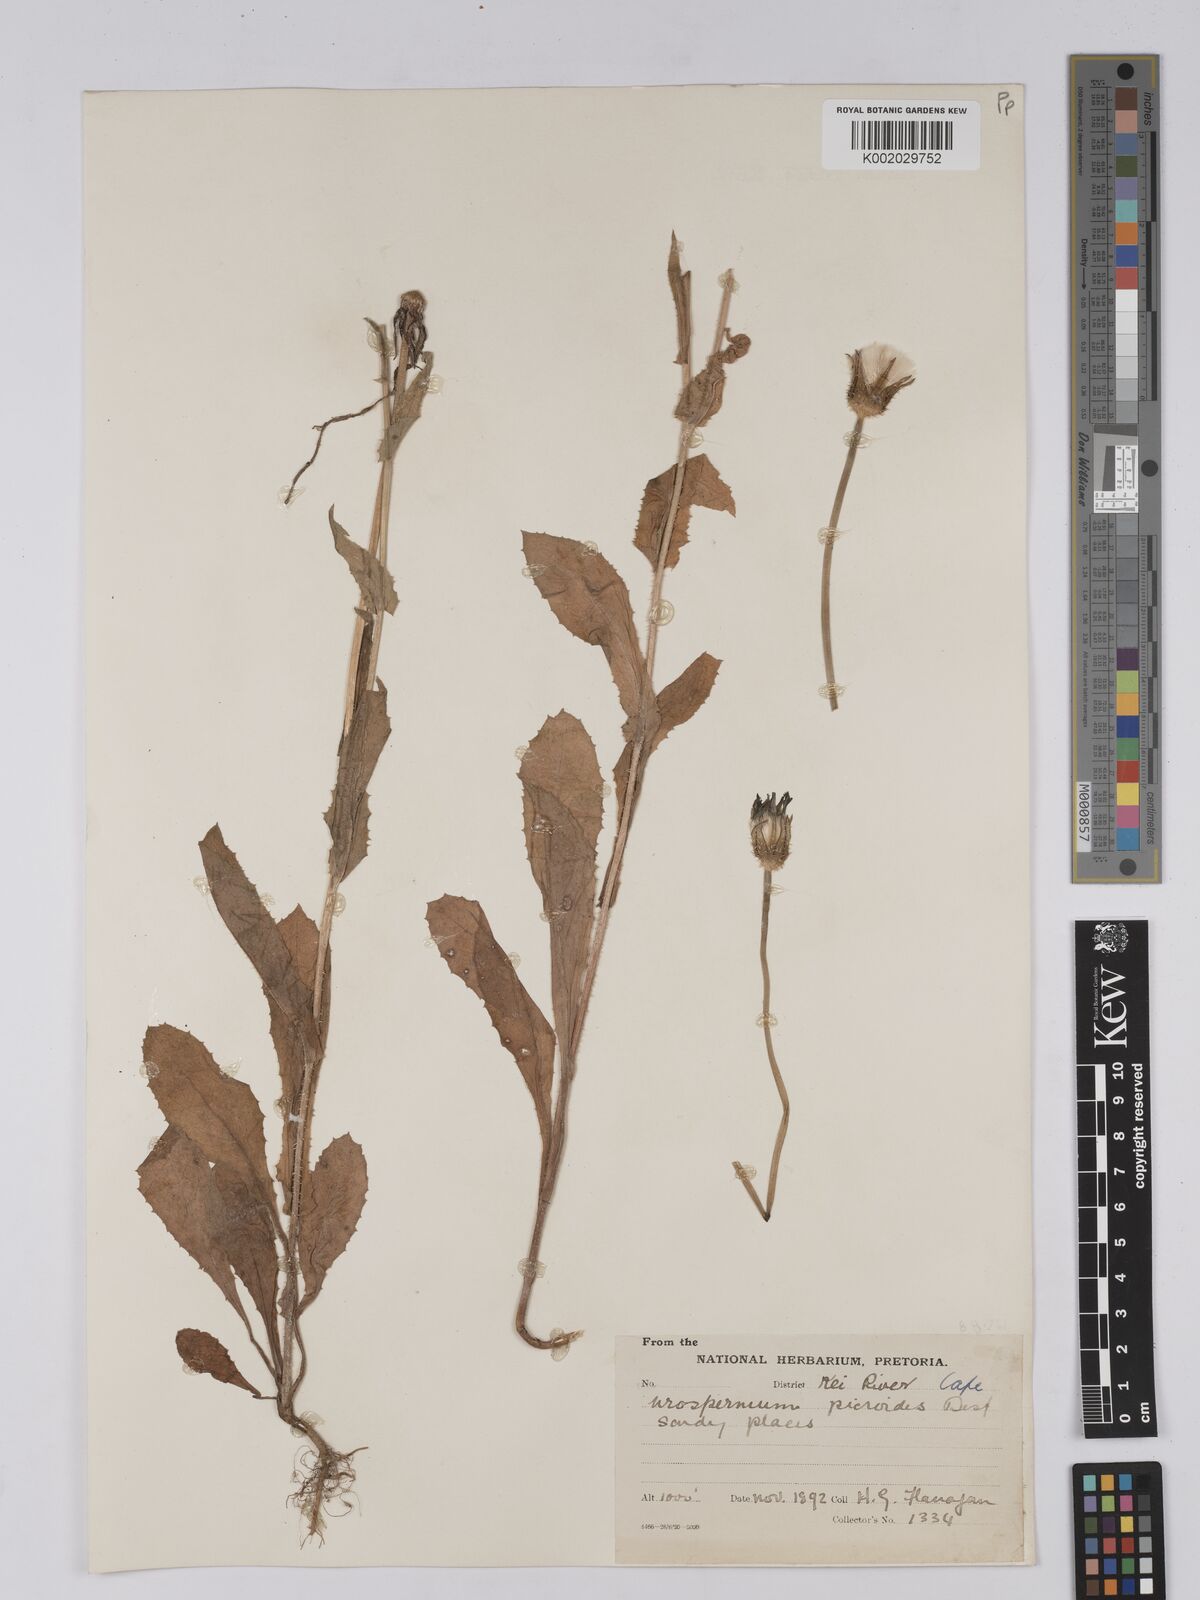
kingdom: Plantae
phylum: Tracheophyta
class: Magnoliopsida
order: Asterales
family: Asteraceae
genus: Urospermum
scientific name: Urospermum picroides
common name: False hawkbit
